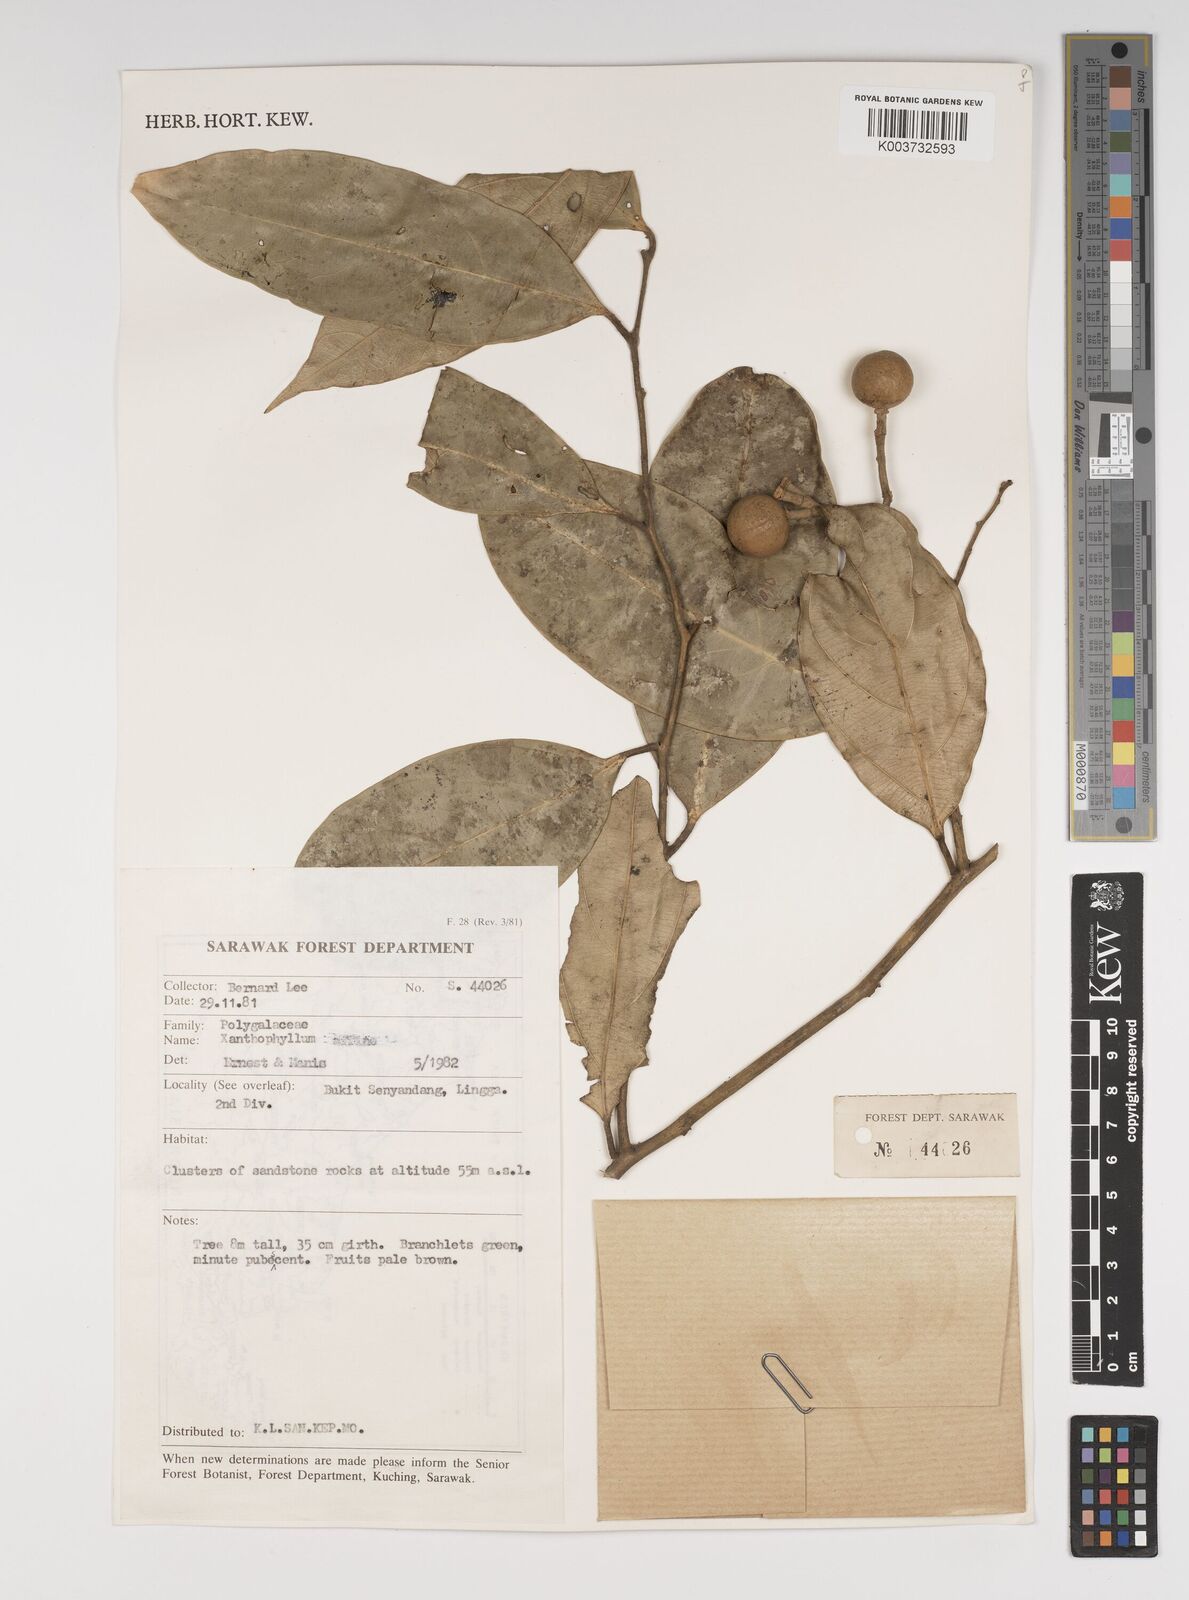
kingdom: Plantae
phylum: Tracheophyta
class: Magnoliopsida
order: Fabales
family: Polygalaceae
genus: Xanthophyllum
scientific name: Xanthophyllum
